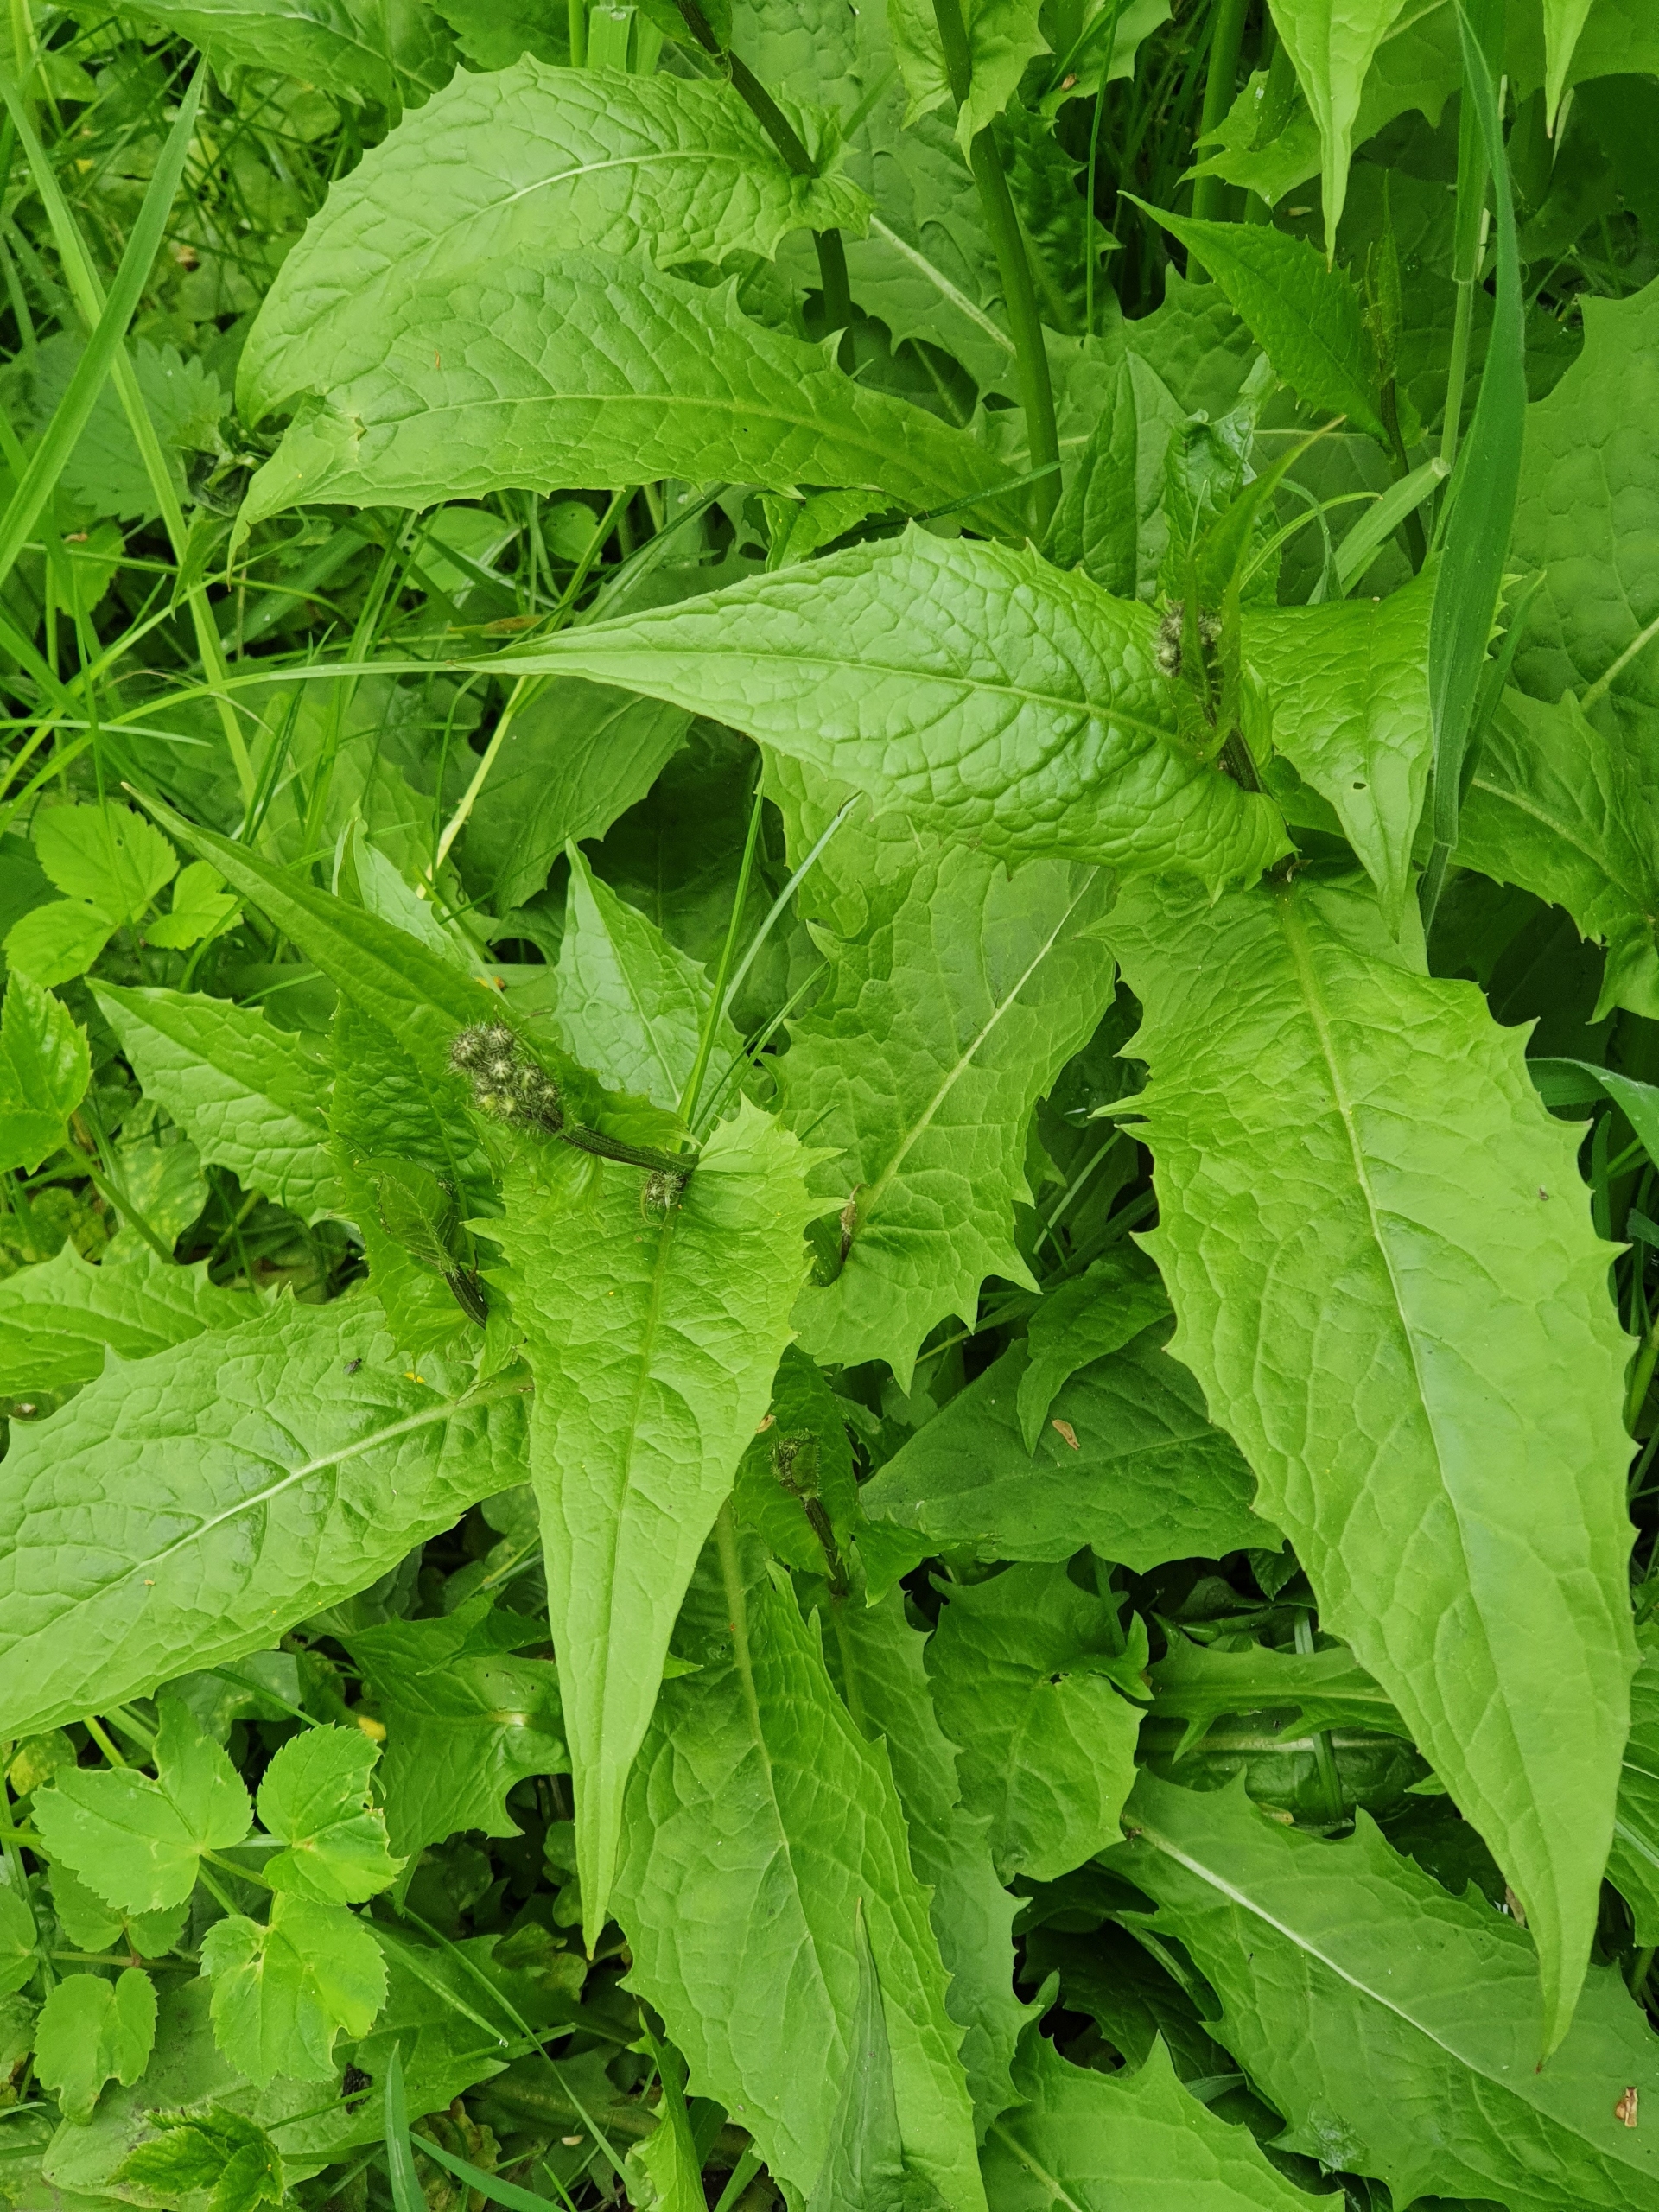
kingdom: Plantae
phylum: Tracheophyta
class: Magnoliopsida
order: Asterales
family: Asteraceae
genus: Crepis
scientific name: Crepis paludosa
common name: Kær-høgeskæg
